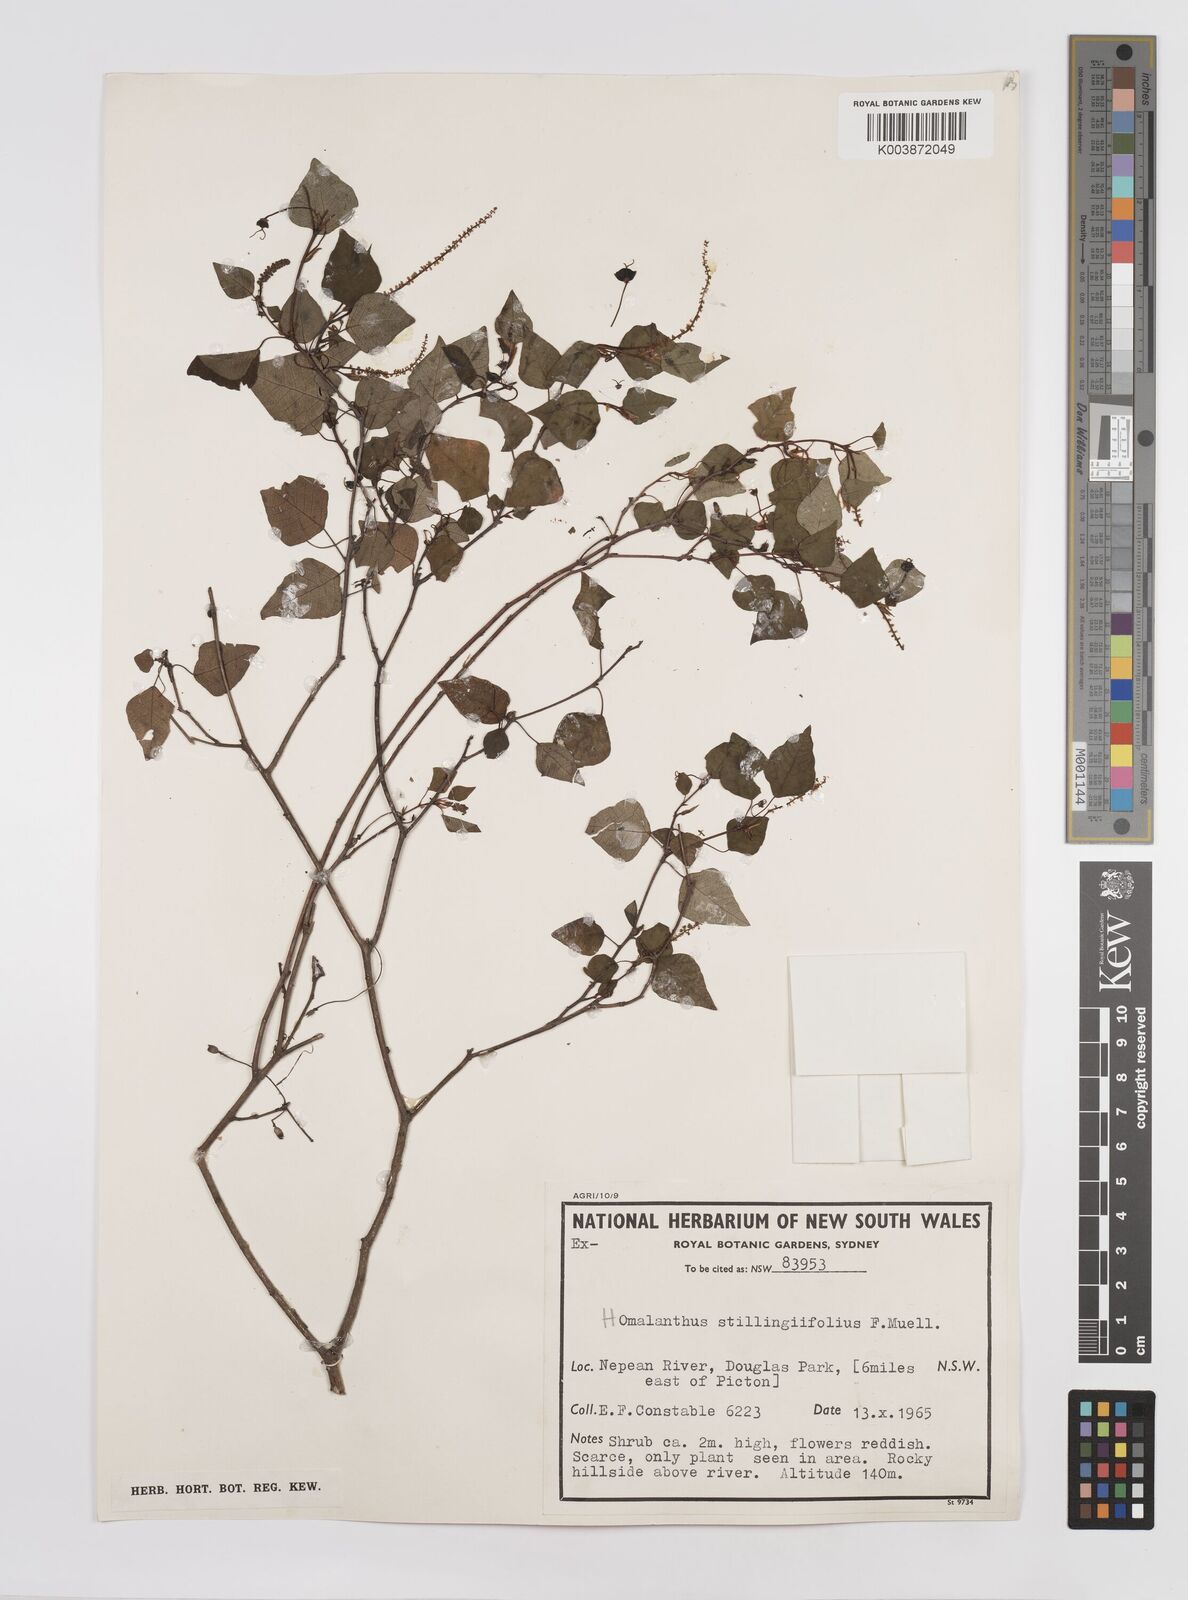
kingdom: Plantae
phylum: Tracheophyta
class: Magnoliopsida
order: Malpighiales
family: Euphorbiaceae
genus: Homalanthus
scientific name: Homalanthus stillingifolius
